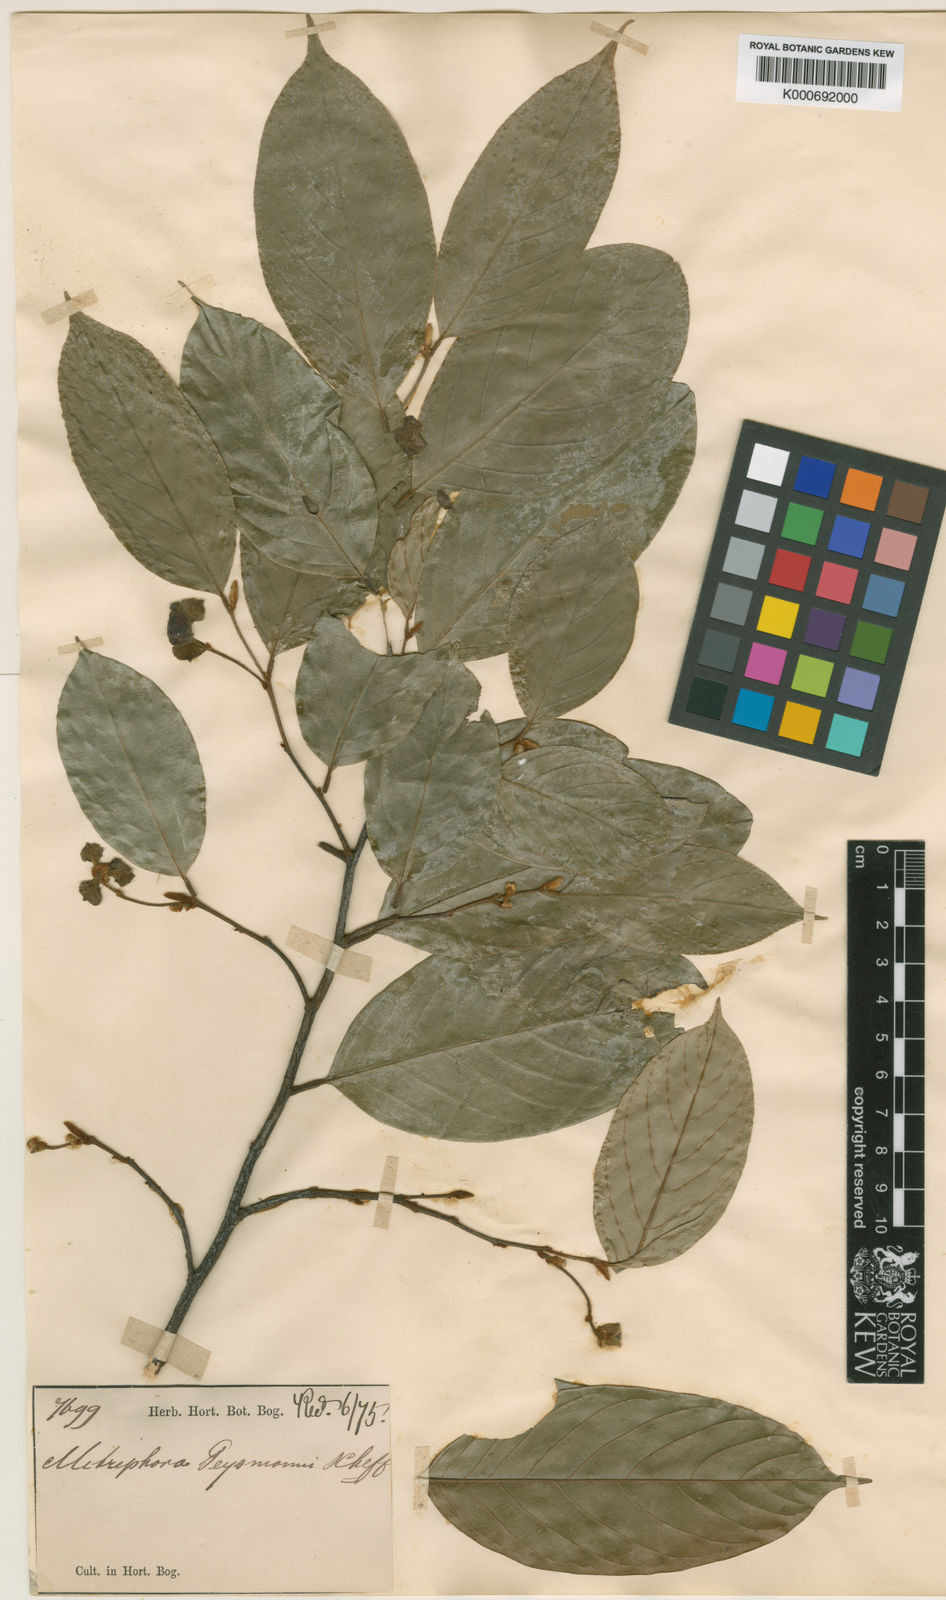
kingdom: Plantae
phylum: Tracheophyta
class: Magnoliopsida
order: Magnoliales
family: Annonaceae
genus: Mitrephora
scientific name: Mitrephora teysmannii
